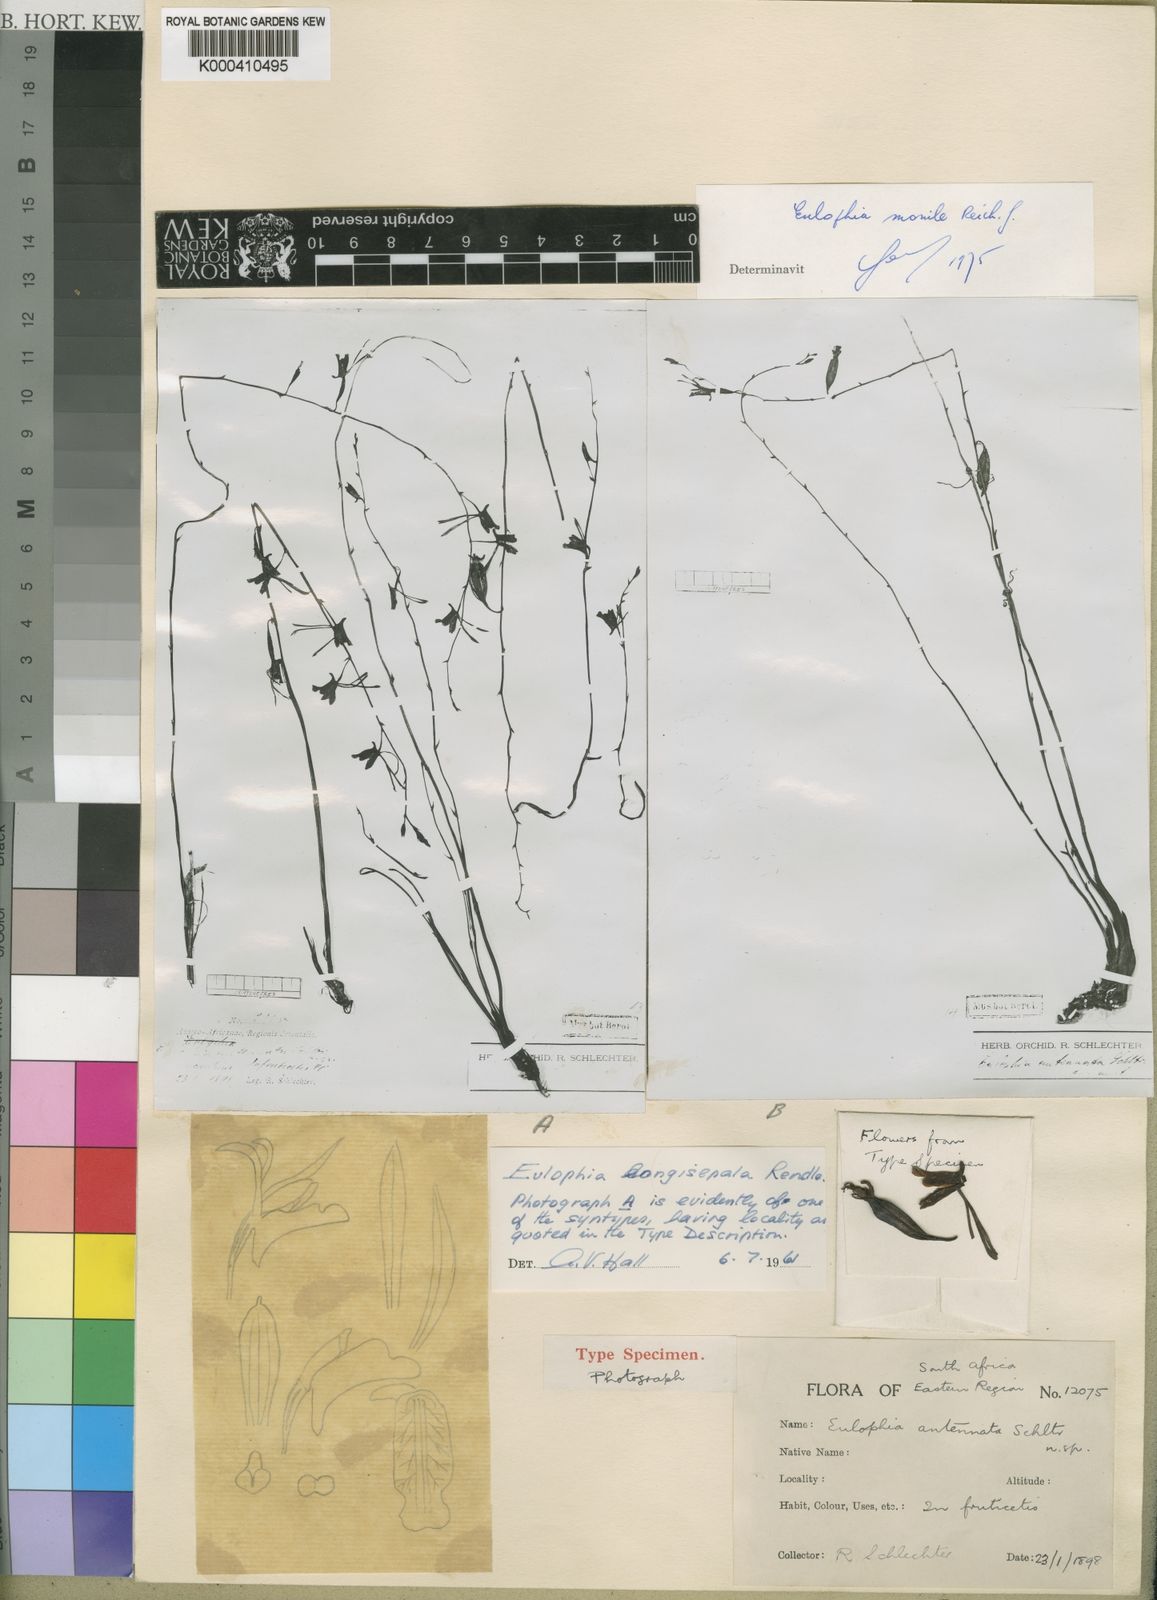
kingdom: Plantae
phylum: Tracheophyta
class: Liliopsida
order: Asparagales
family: Orchidaceae
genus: Eulophia
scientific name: Eulophia longisepala
